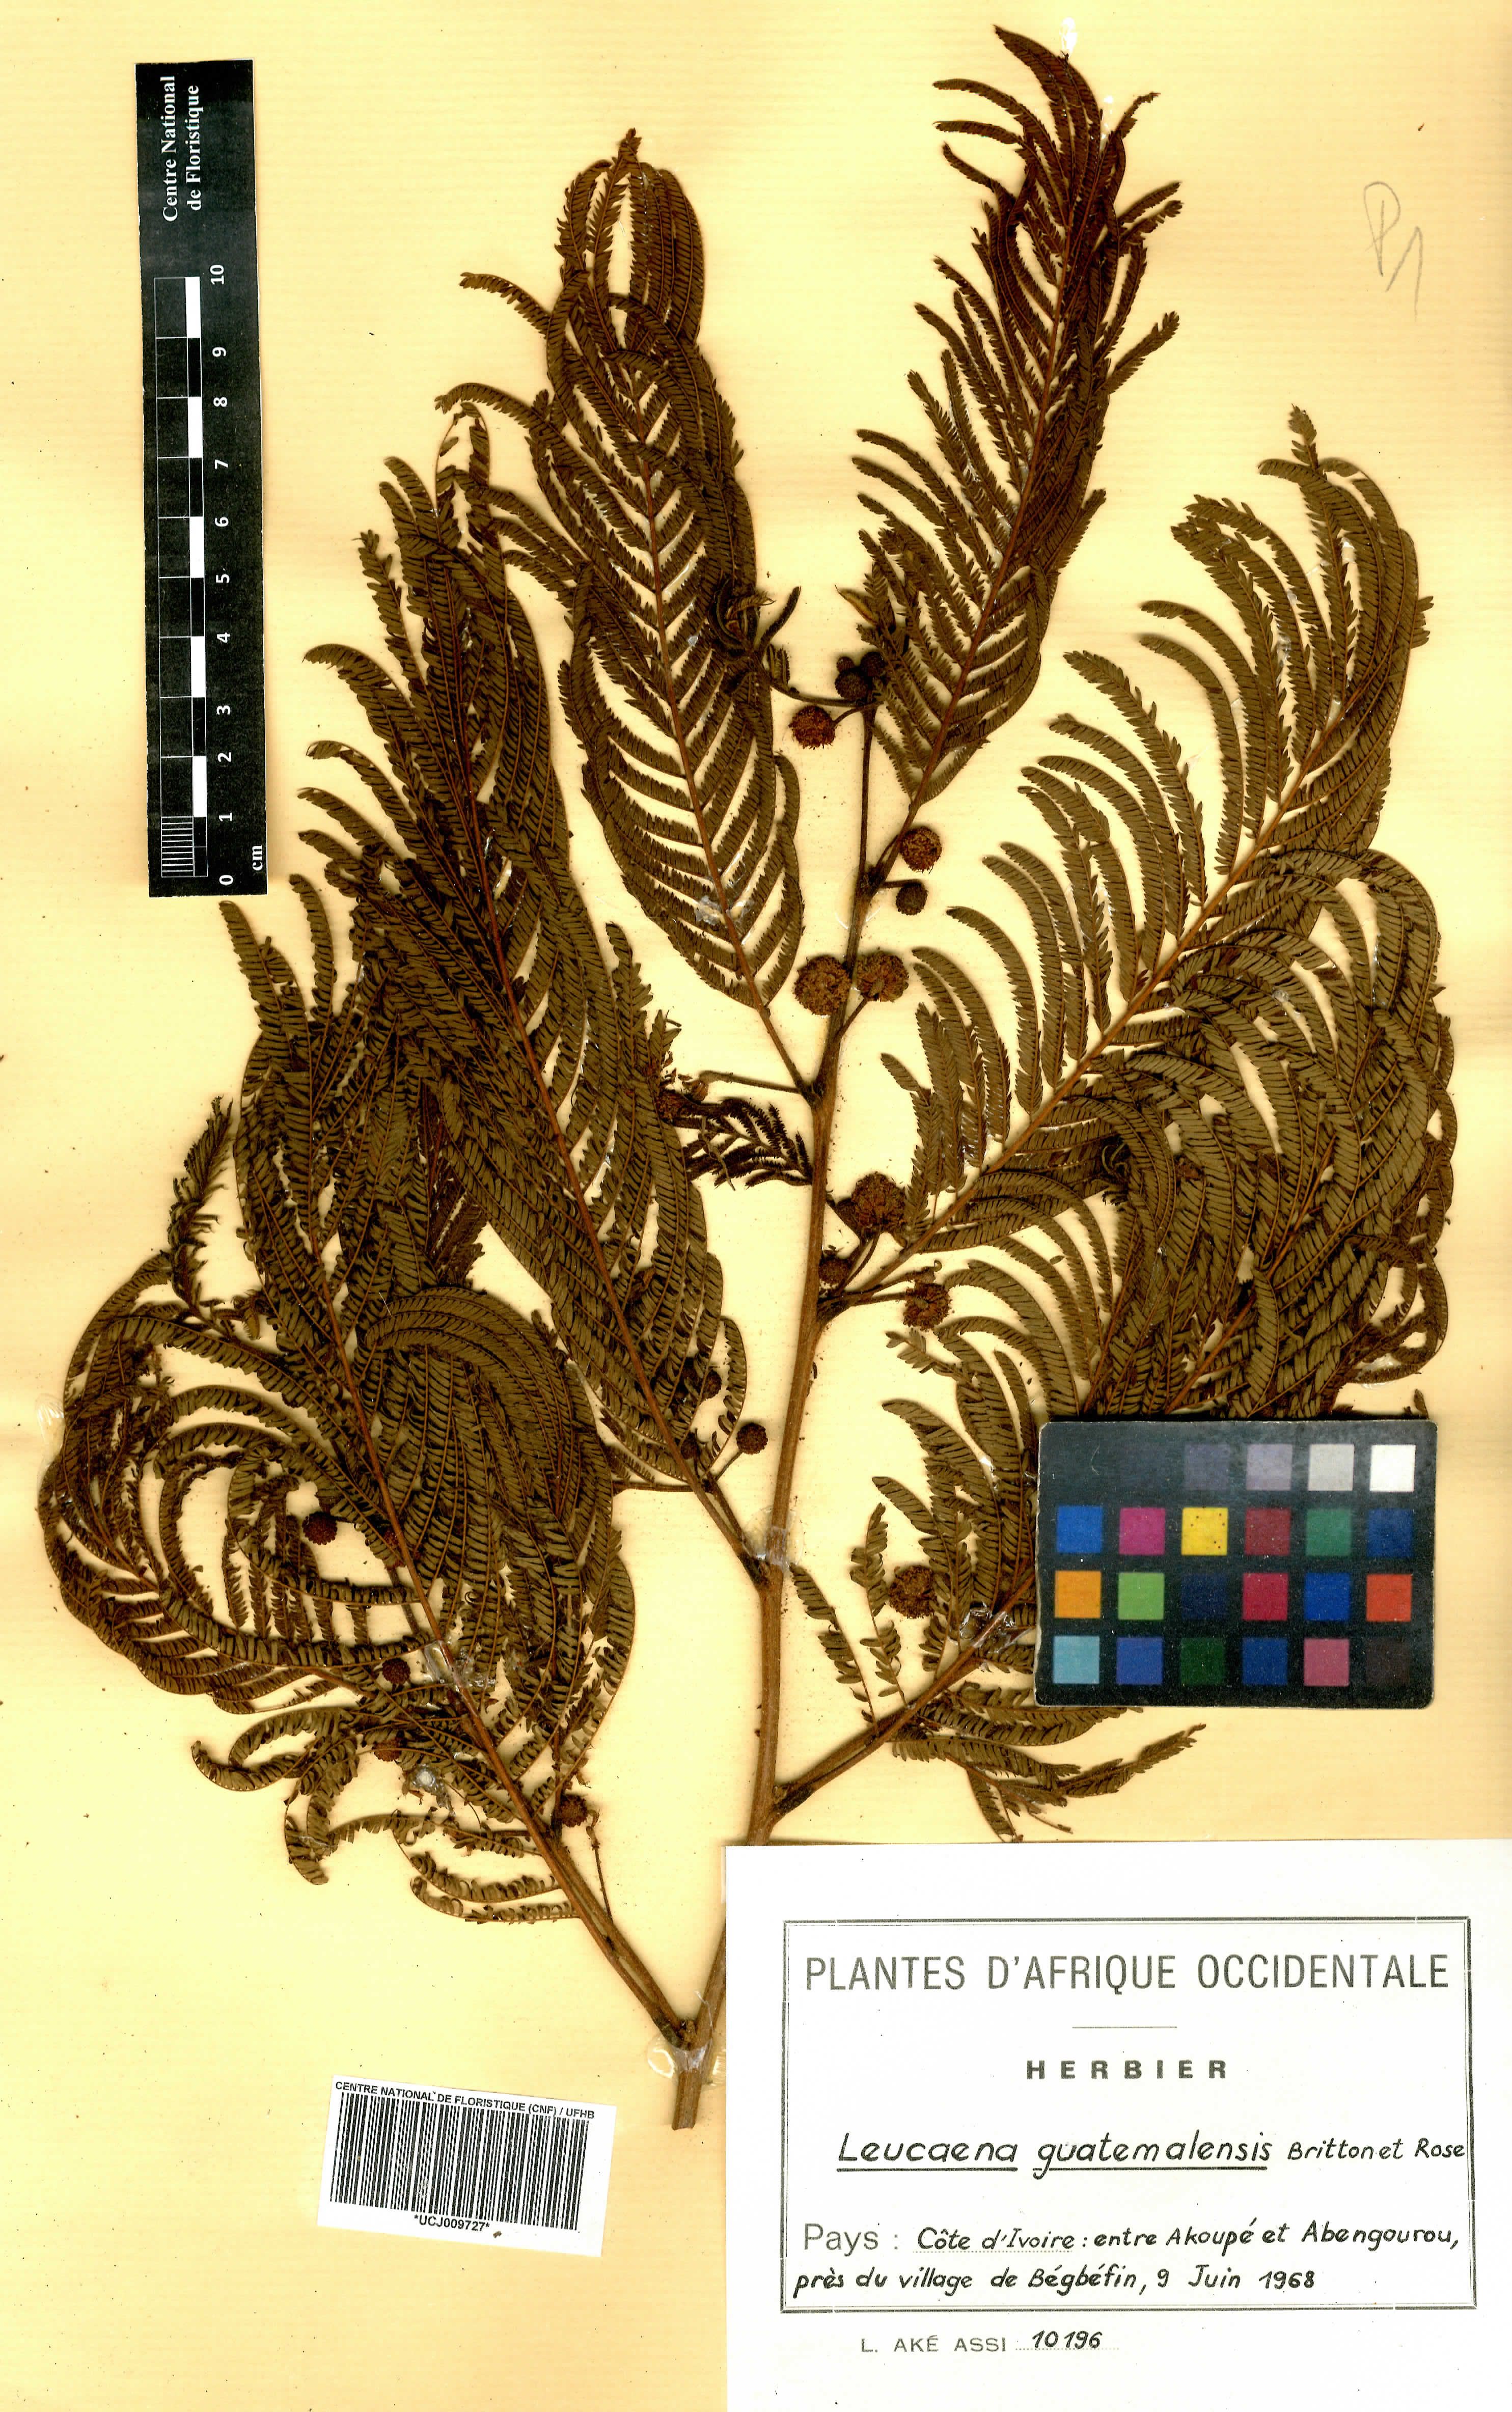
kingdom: Plantae
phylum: Tracheophyta
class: Magnoliopsida
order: Fabales
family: Fabaceae
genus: Leucaena
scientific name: Leucaena trichandra
